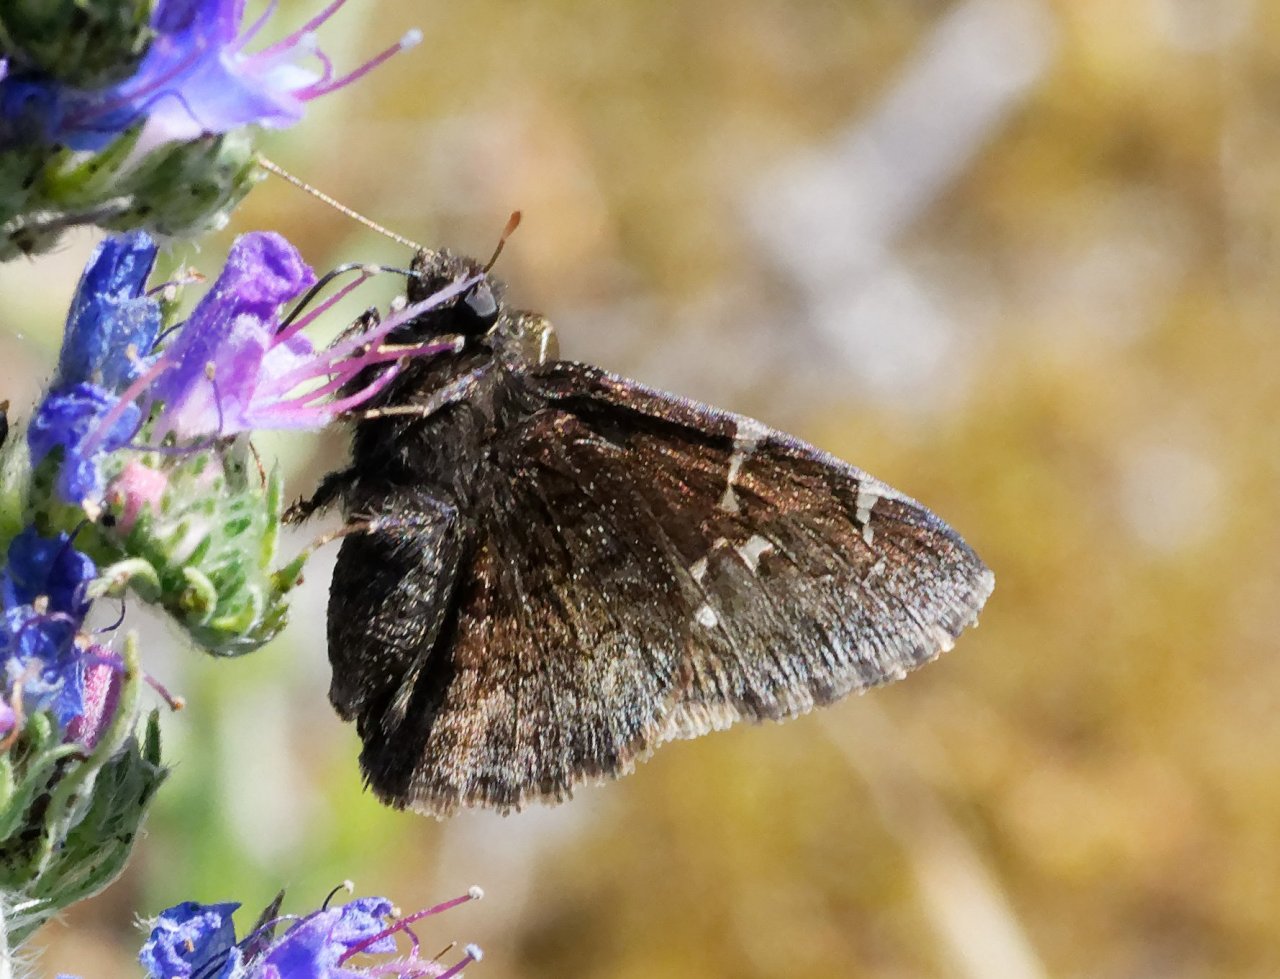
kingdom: Animalia
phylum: Arthropoda
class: Insecta
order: Lepidoptera
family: Hesperiidae
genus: Autochton
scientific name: Autochton
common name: Northern Cloudywing
